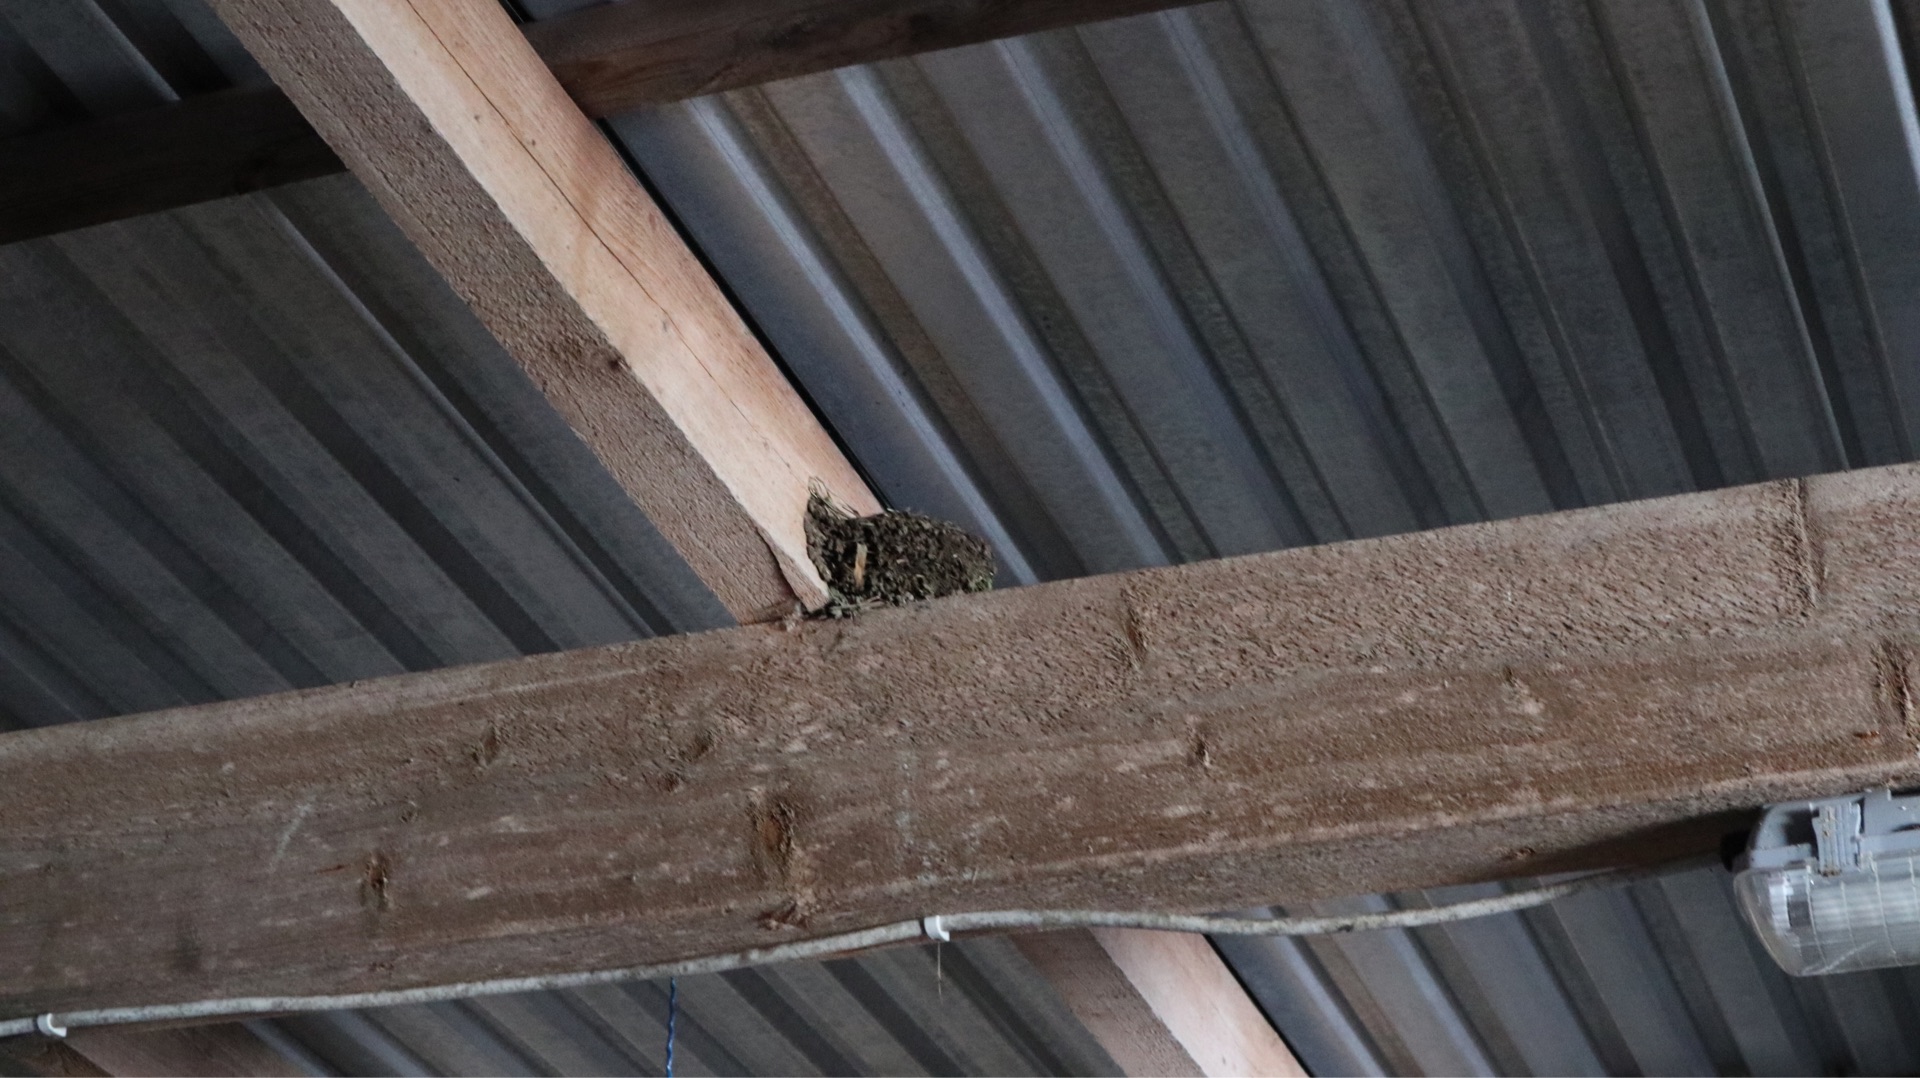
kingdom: Animalia
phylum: Chordata
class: Aves
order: Passeriformes
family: Hirundinidae
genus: Hirundo
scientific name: Hirundo rustica
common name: Landsvale
